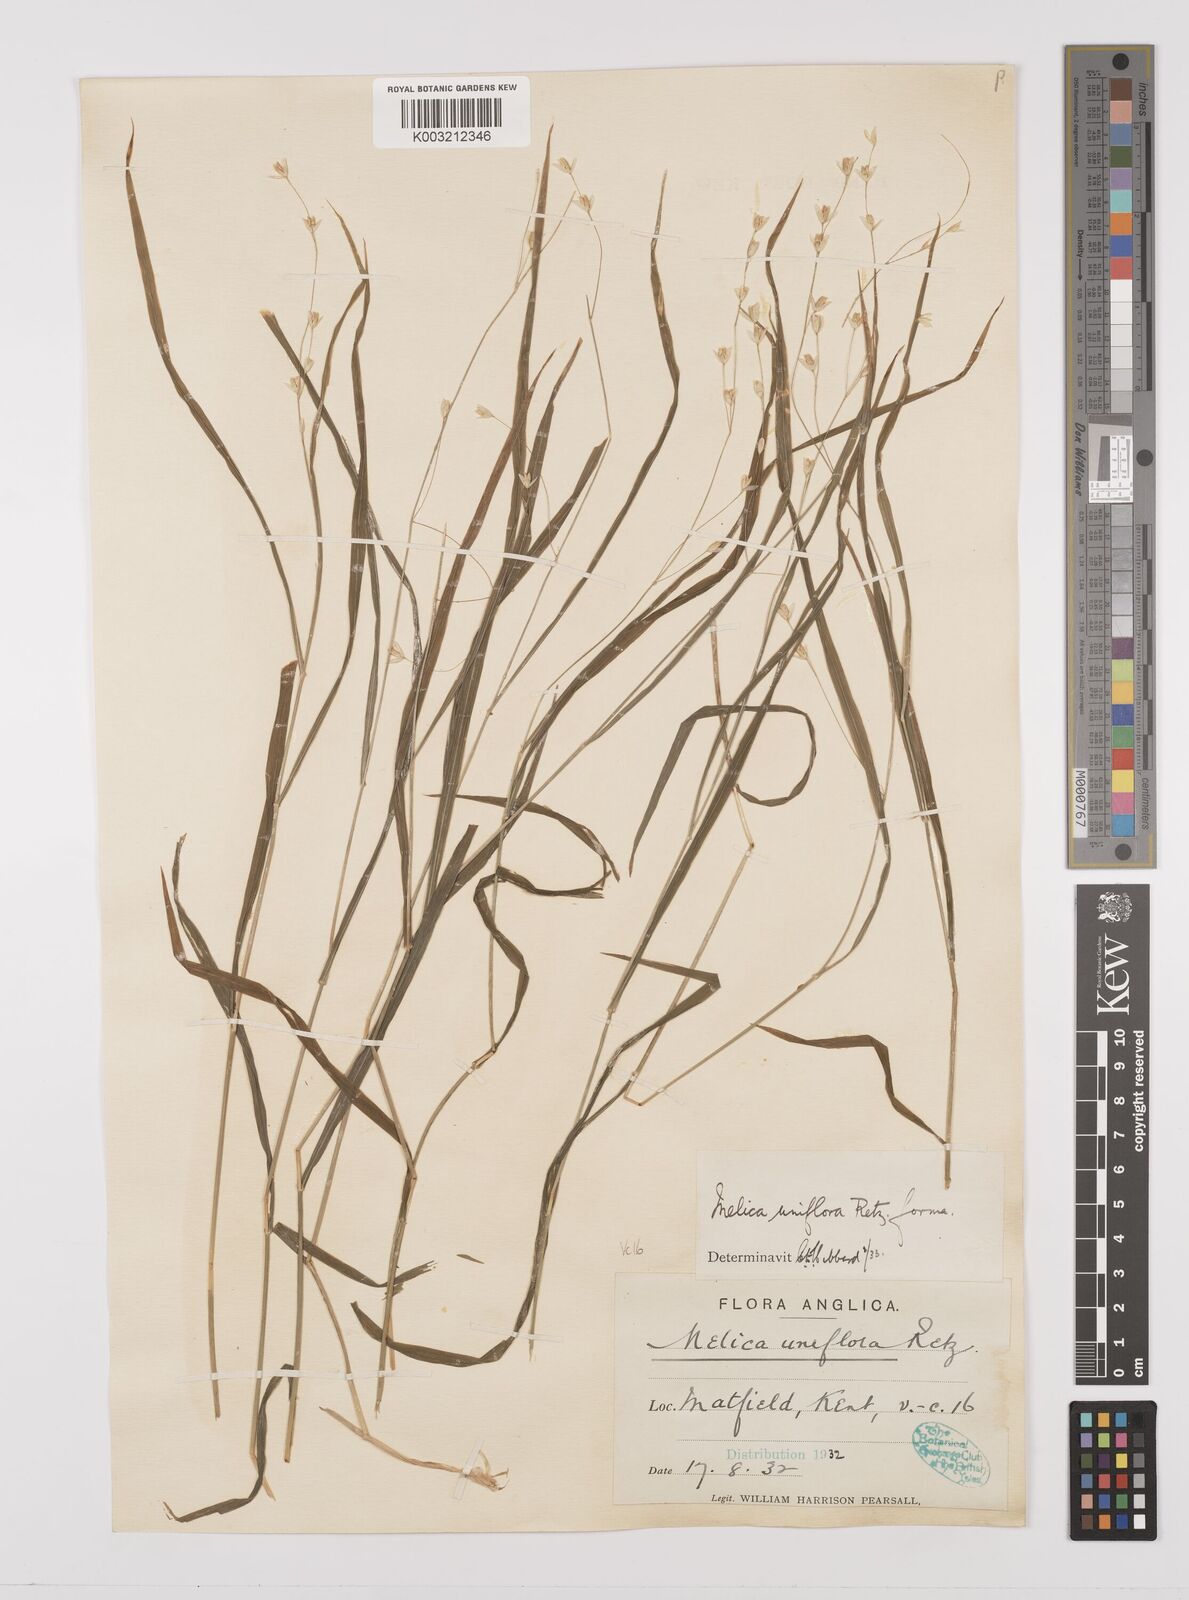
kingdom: Plantae
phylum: Tracheophyta
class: Liliopsida
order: Poales
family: Poaceae
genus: Melica
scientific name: Melica uniflora
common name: Wood melick
